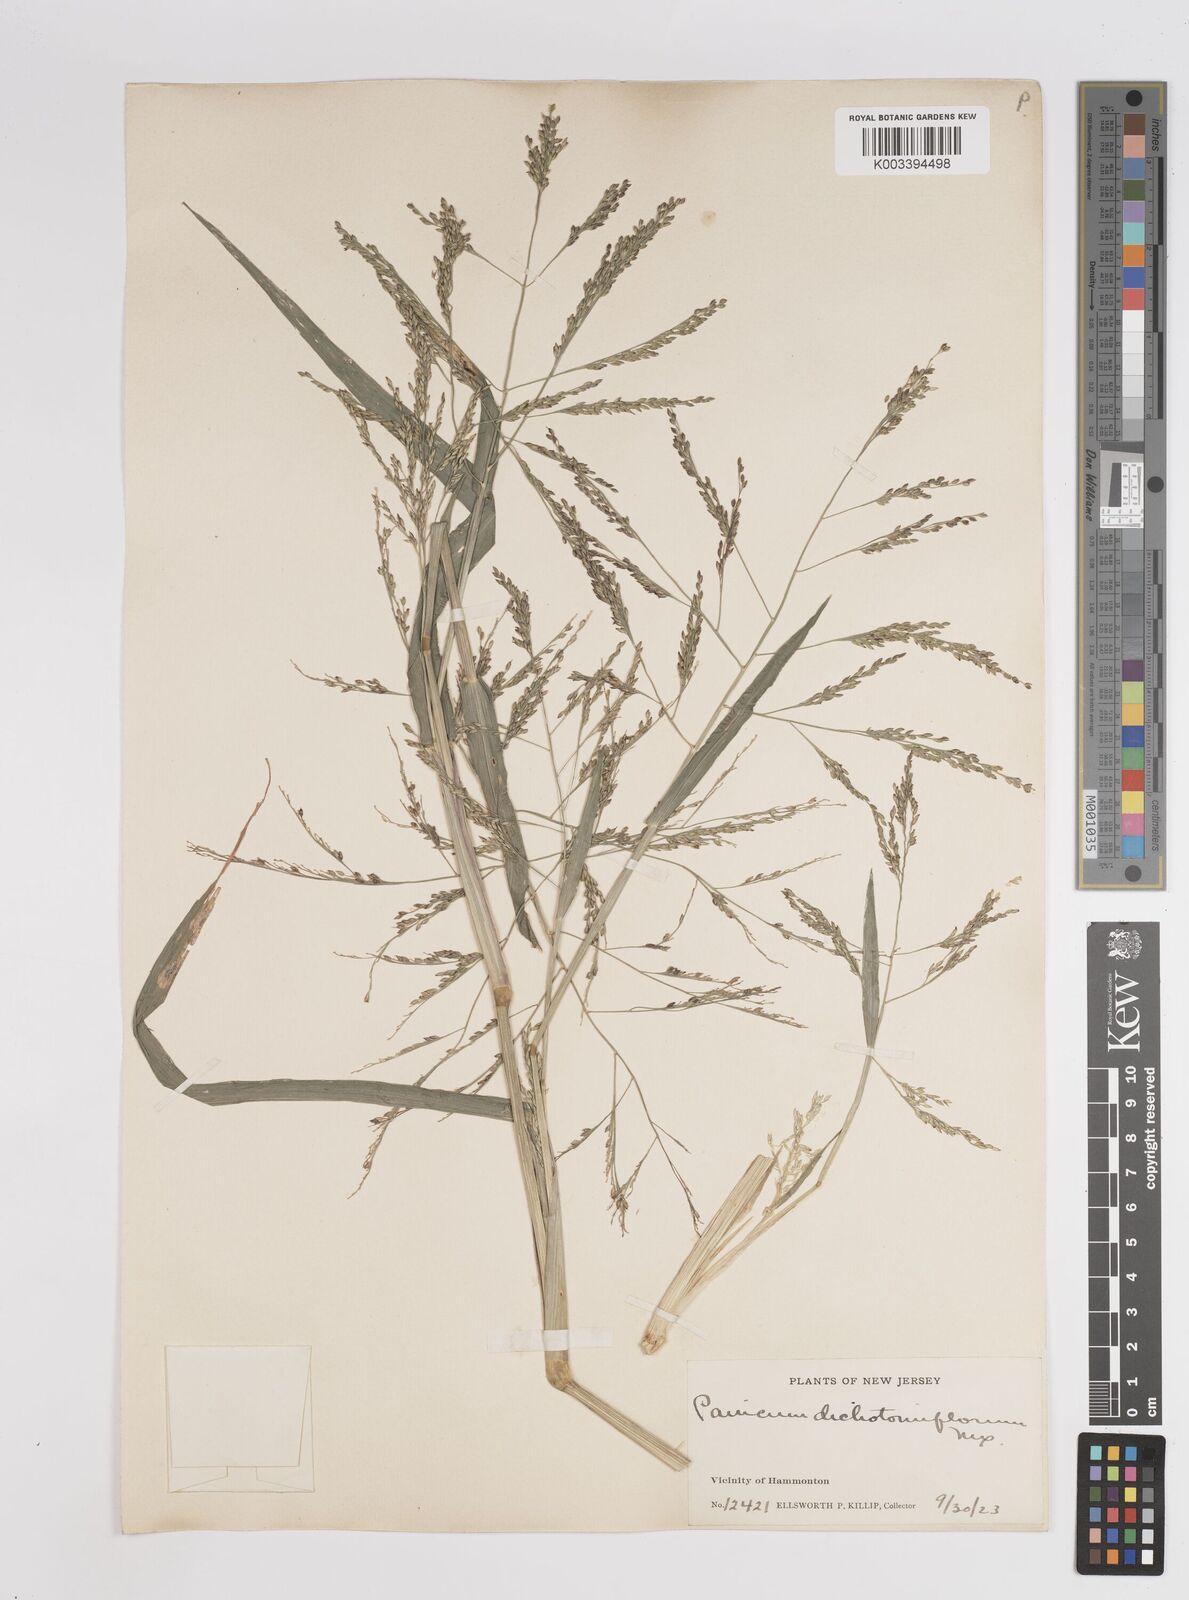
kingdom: Plantae
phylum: Tracheophyta
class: Liliopsida
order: Poales
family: Poaceae
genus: Panicum
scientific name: Panicum dichotomiflorum
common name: Autumn millet
